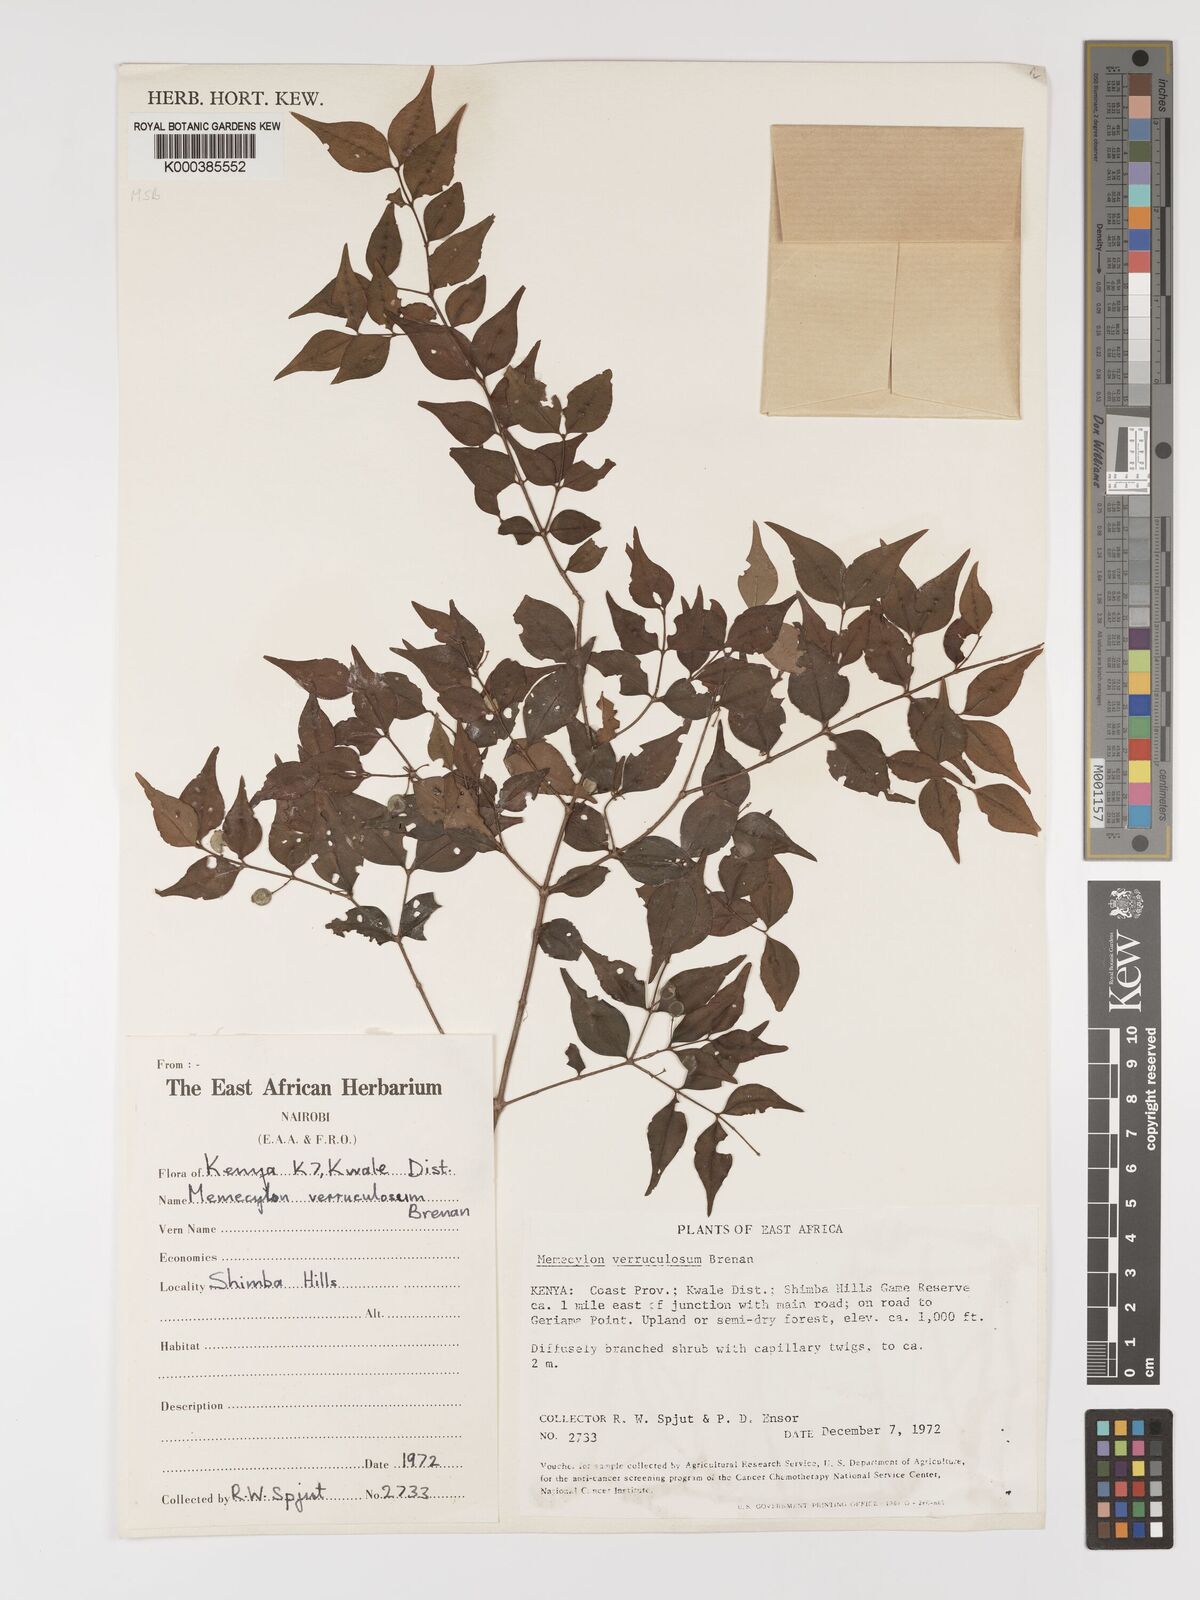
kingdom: Plantae
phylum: Tracheophyta
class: Magnoliopsida
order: Myrtales
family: Melastomataceae
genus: Memecylon
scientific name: Memecylon verruculosum
